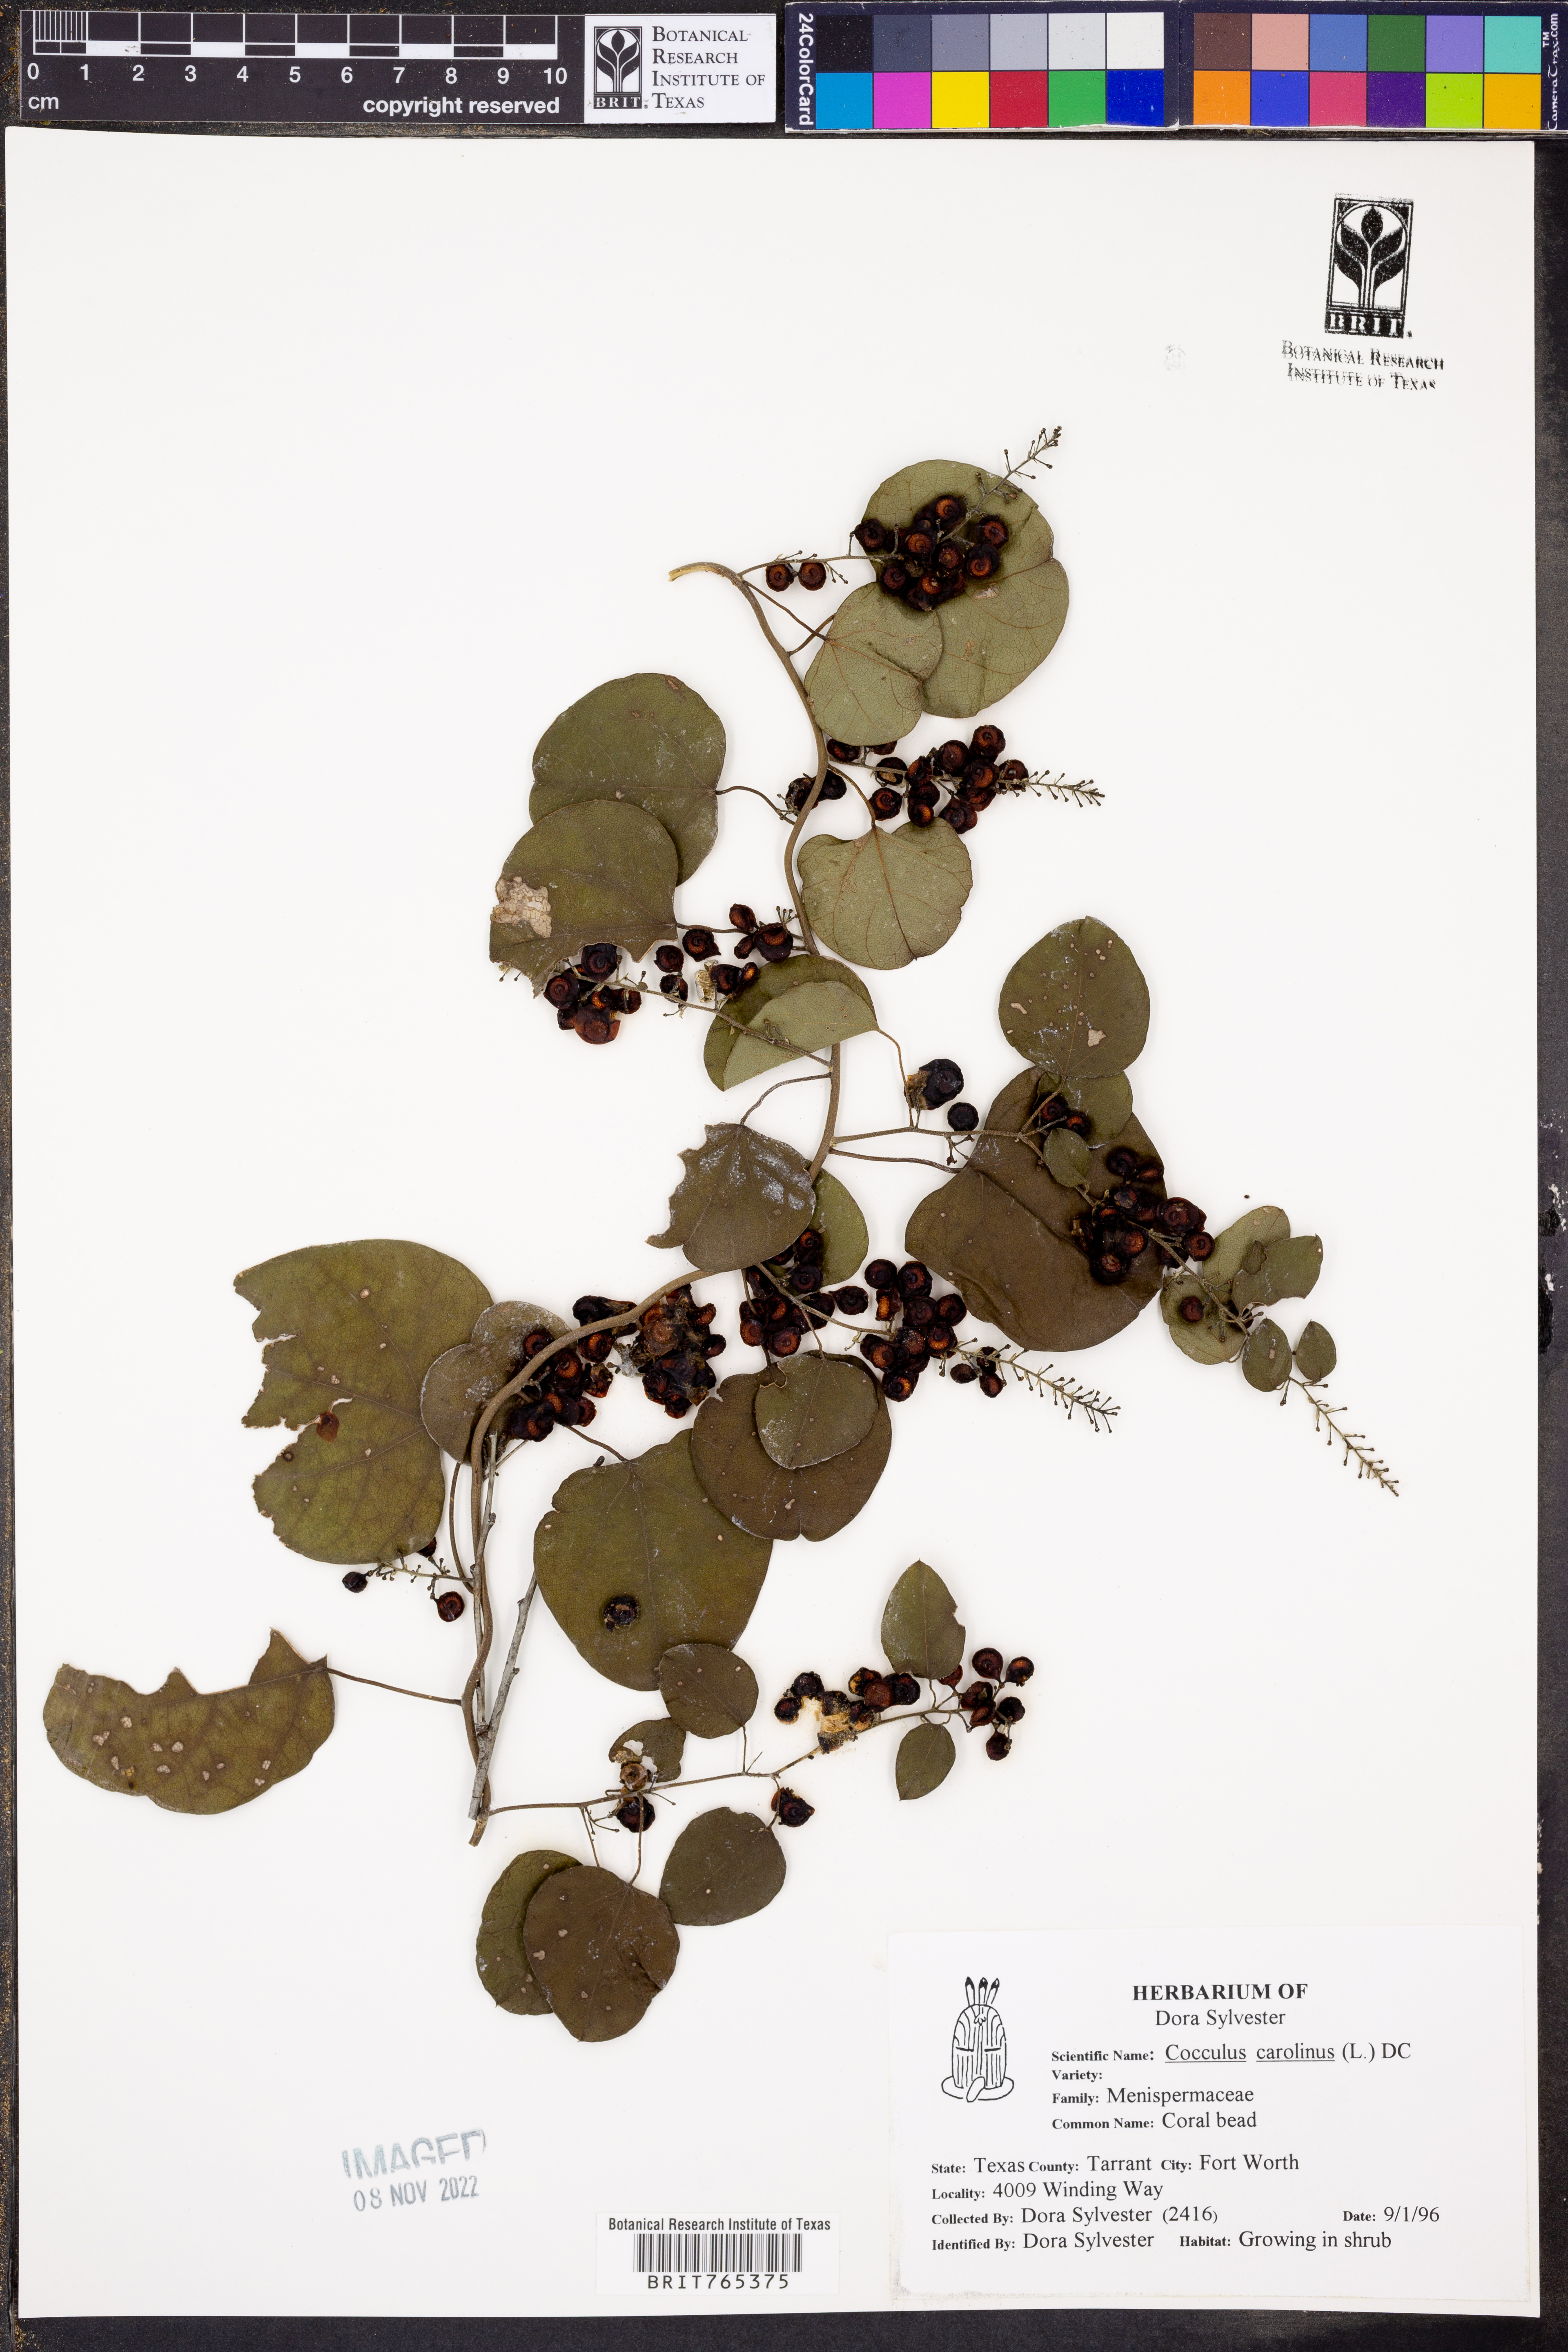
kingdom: Plantae
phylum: Tracheophyta
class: Magnoliopsida
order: Ranunculales
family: Menispermaceae
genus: Cocculus
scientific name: Cocculus carolinus
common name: Carolina moonseed
